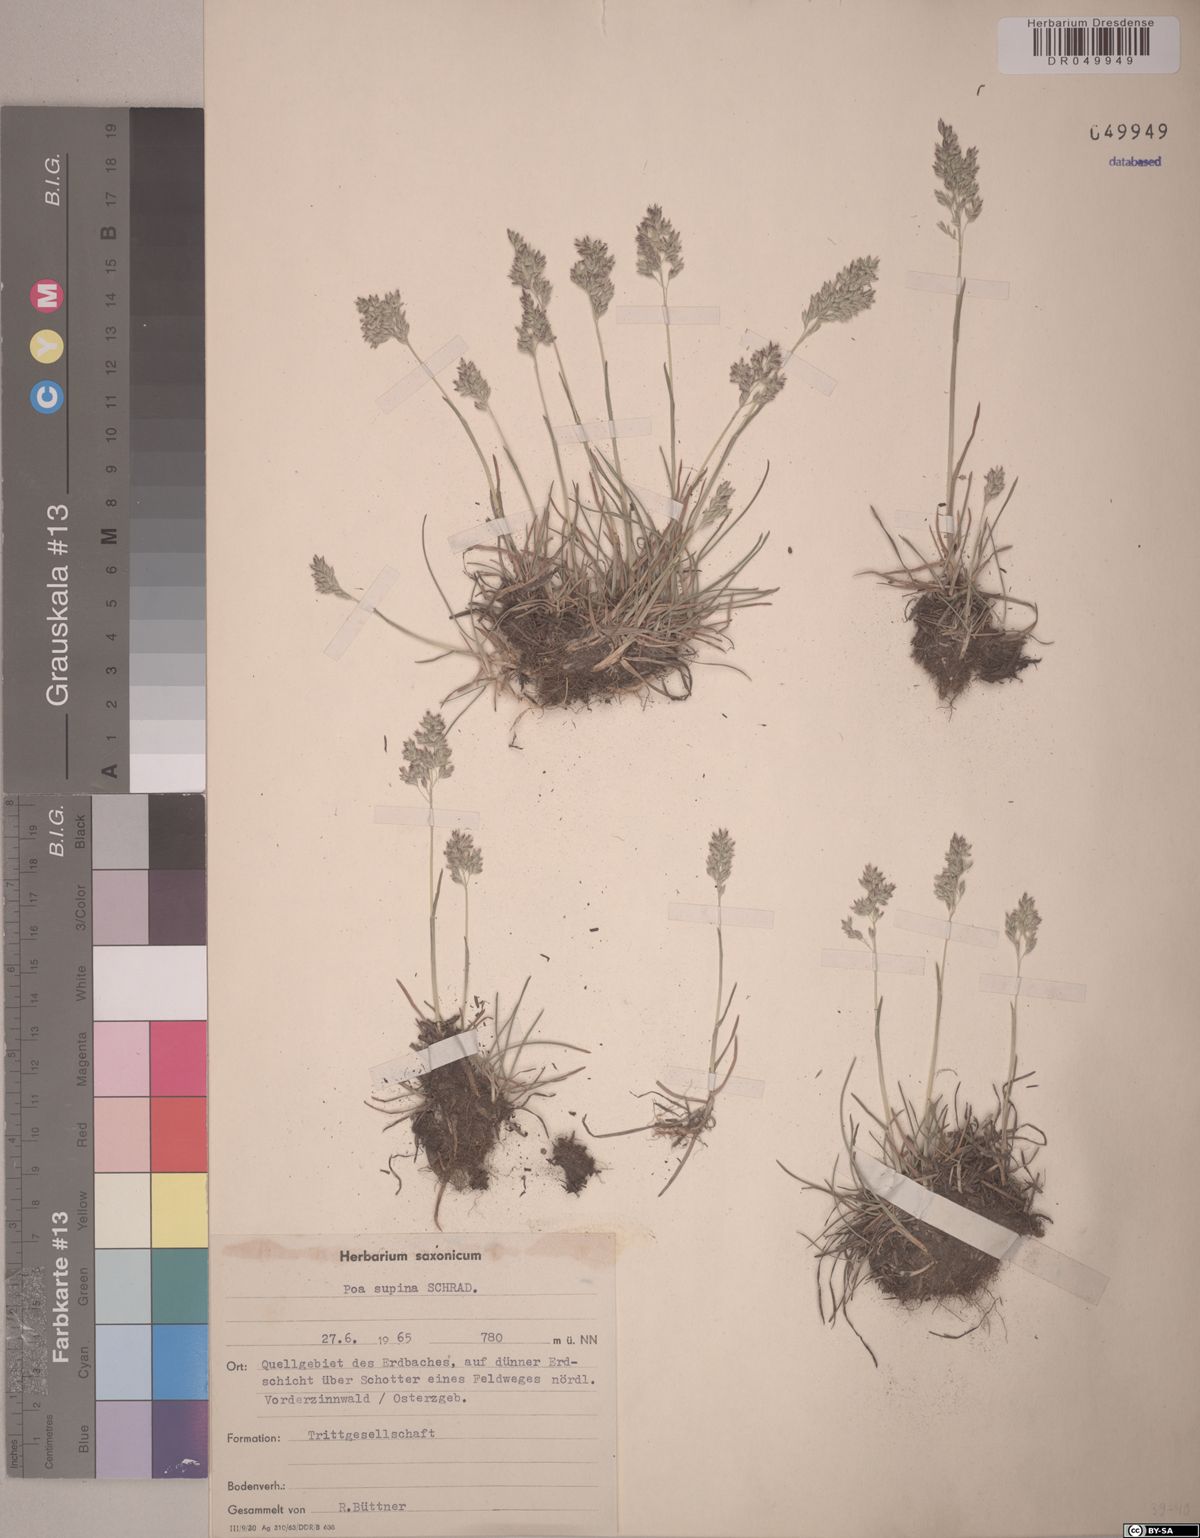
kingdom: Plantae
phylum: Tracheophyta
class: Liliopsida
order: Poales
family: Poaceae
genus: Poa
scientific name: Poa supina
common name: Supina bluegrass
